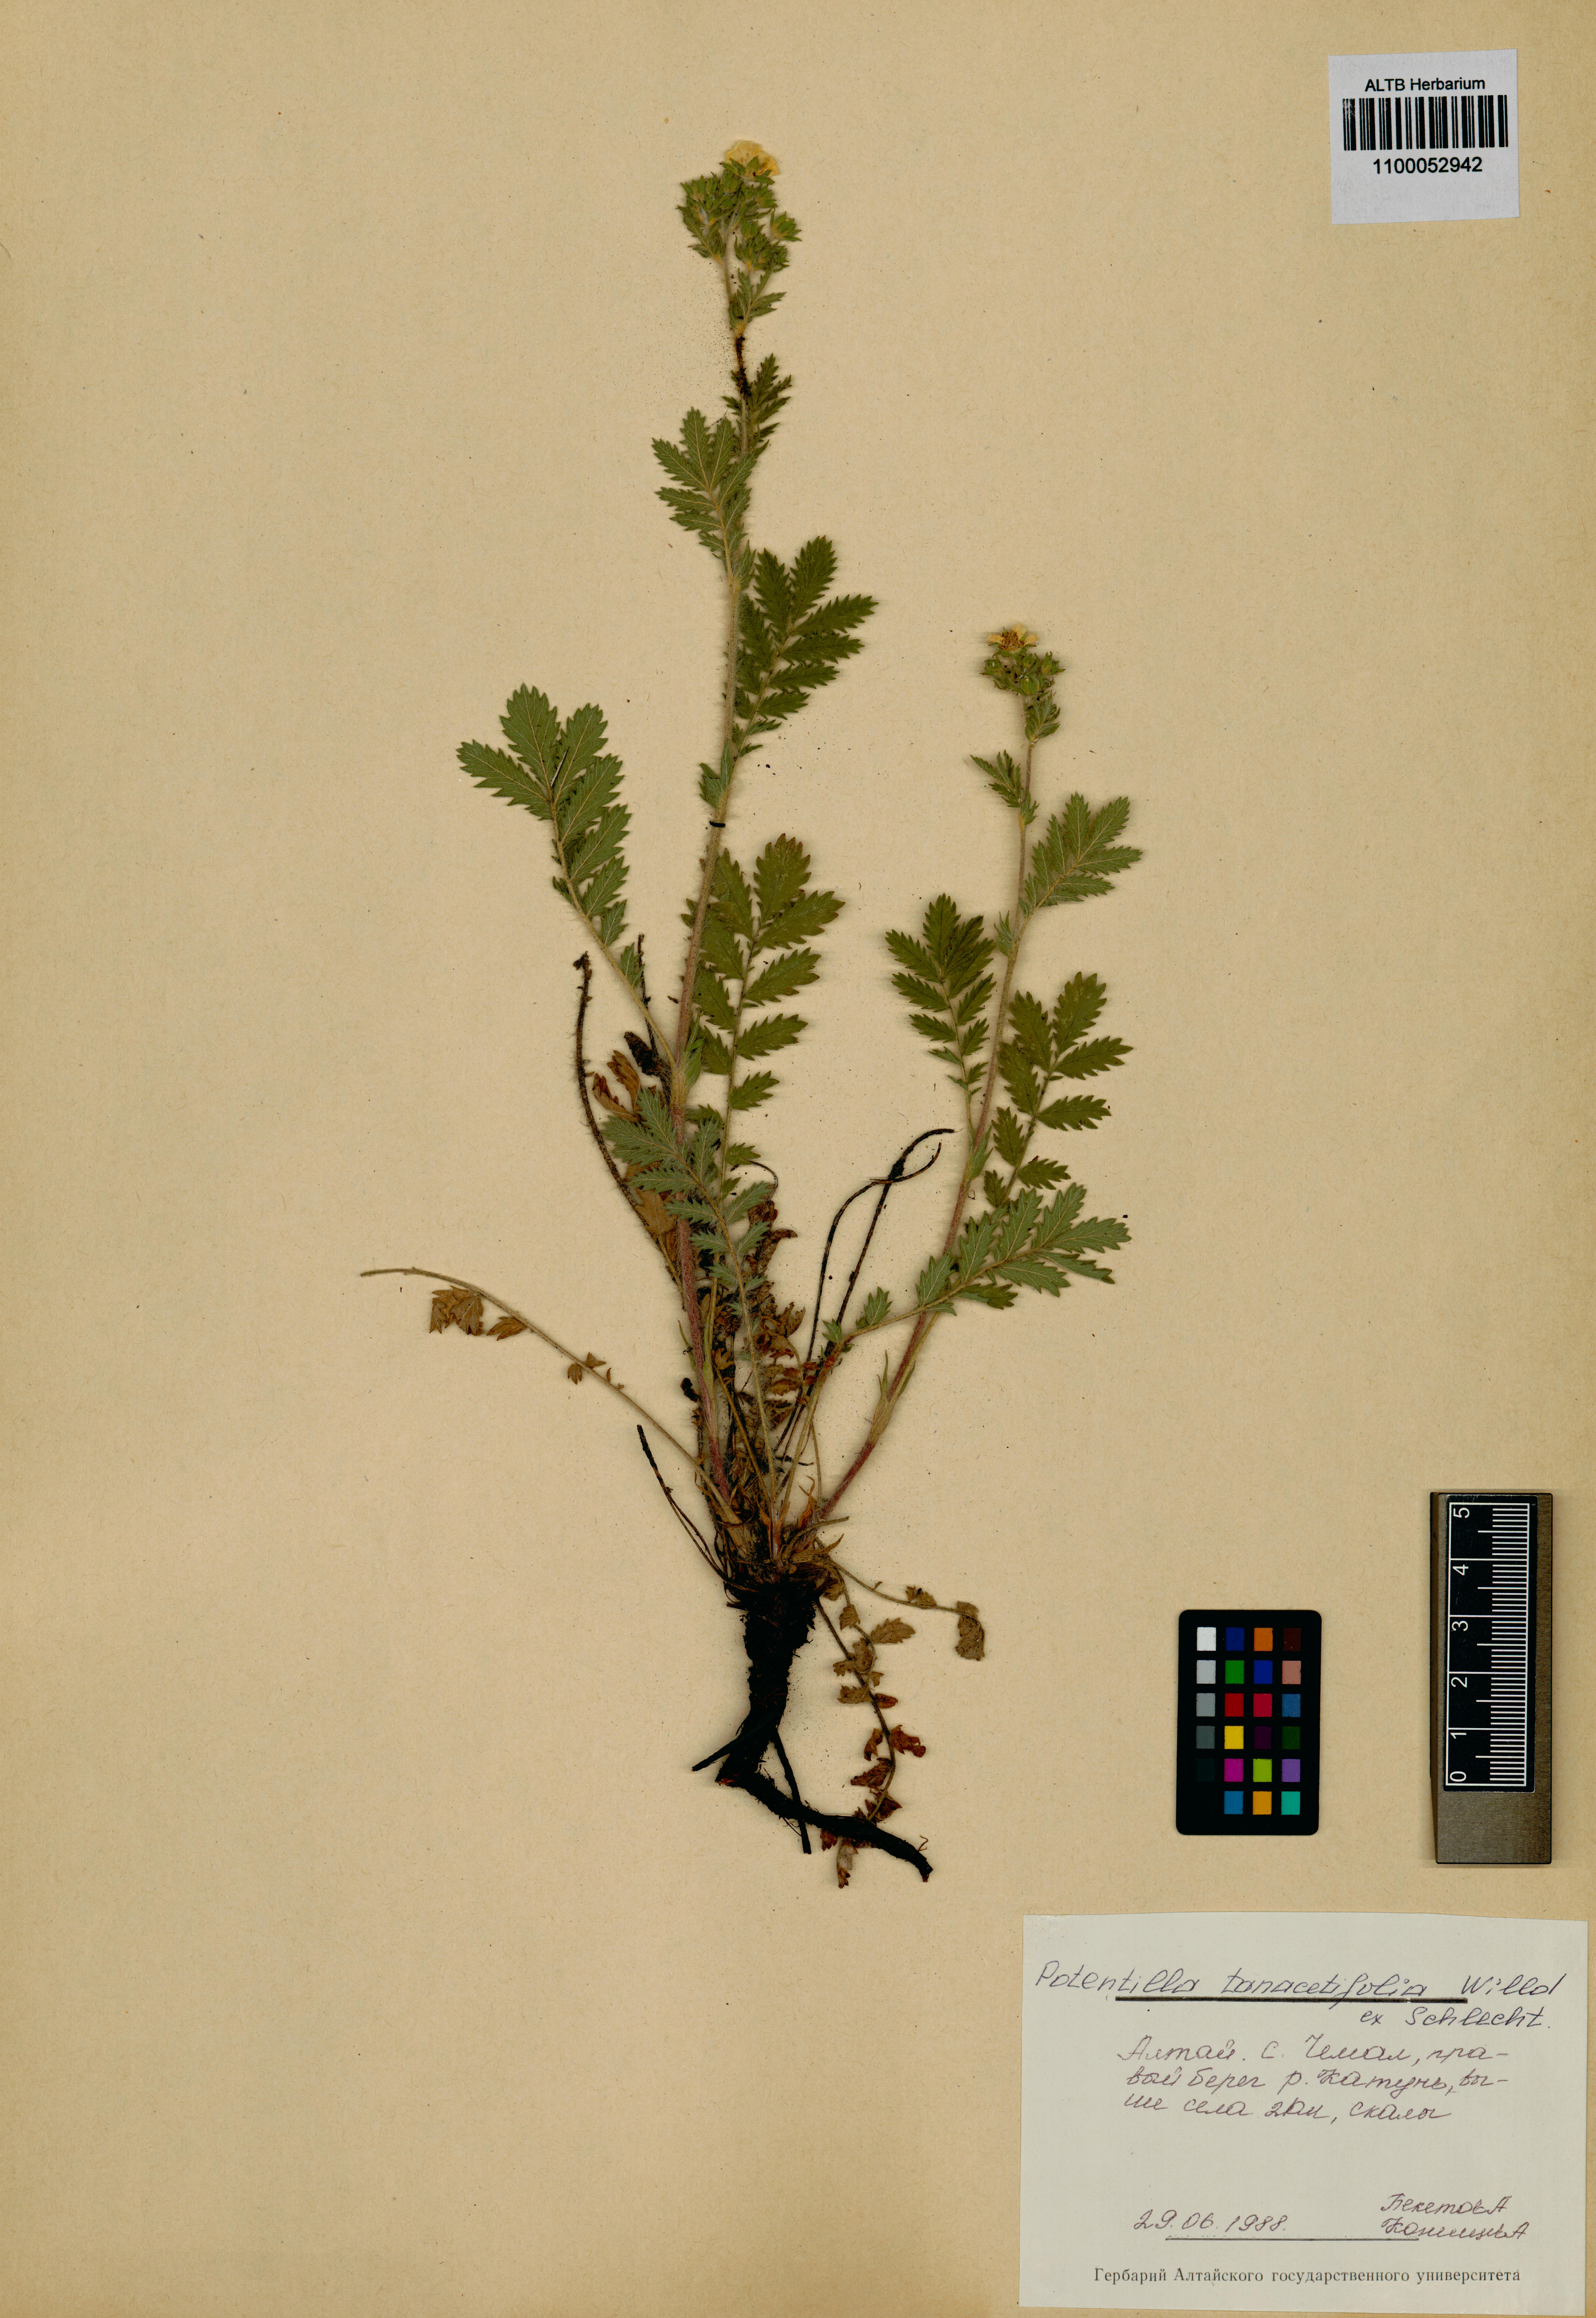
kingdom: Plantae
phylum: Tracheophyta
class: Magnoliopsida
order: Rosales
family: Rosaceae
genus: Potentilla
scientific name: Potentilla tanacetifolia
